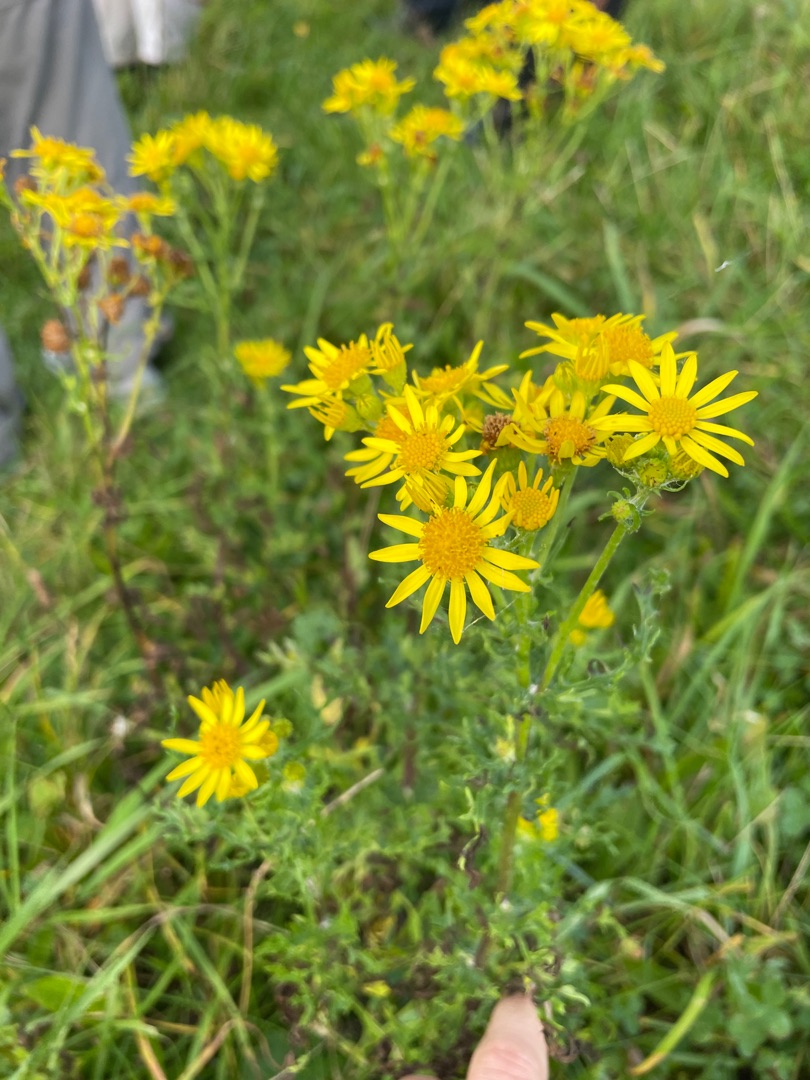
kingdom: Plantae
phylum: Tracheophyta
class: Magnoliopsida
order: Asterales
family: Asteraceae
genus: Jacobaea
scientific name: Jacobaea vulgaris
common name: Eng-brandbæger
